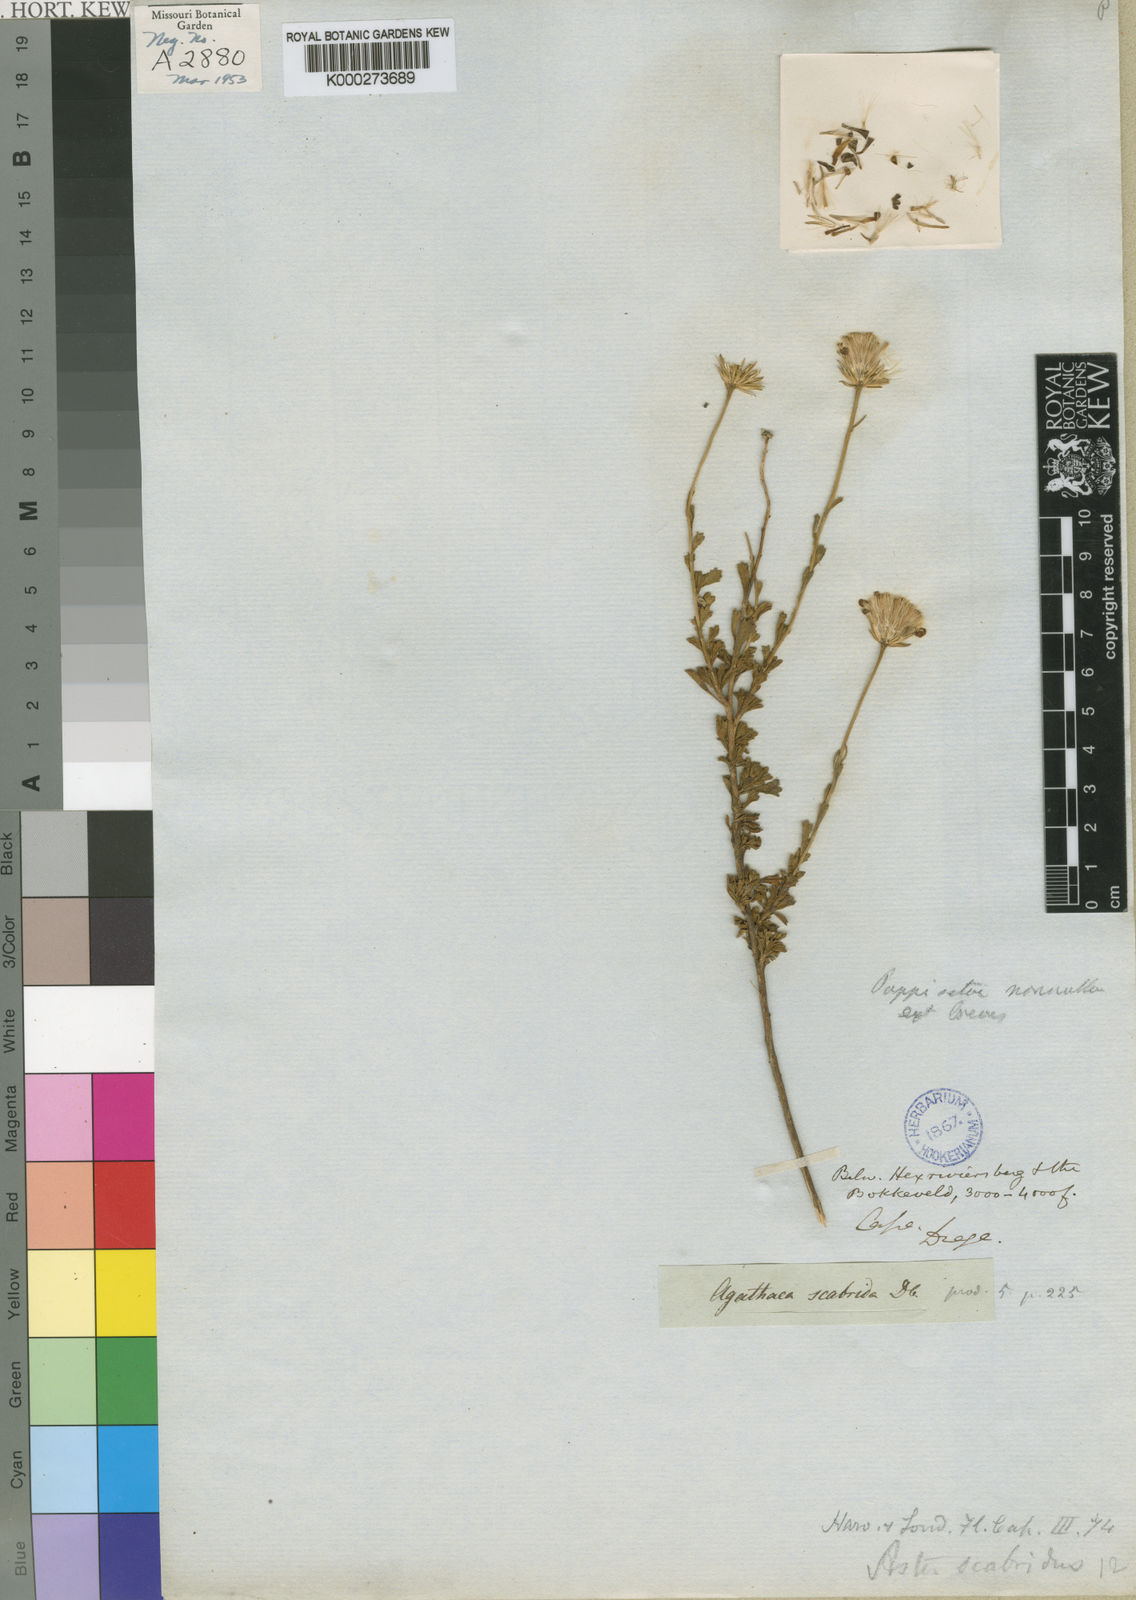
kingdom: Plantae
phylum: Tracheophyta
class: Magnoliopsida
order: Asterales
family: Asteraceae
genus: Felicia
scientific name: Felicia
